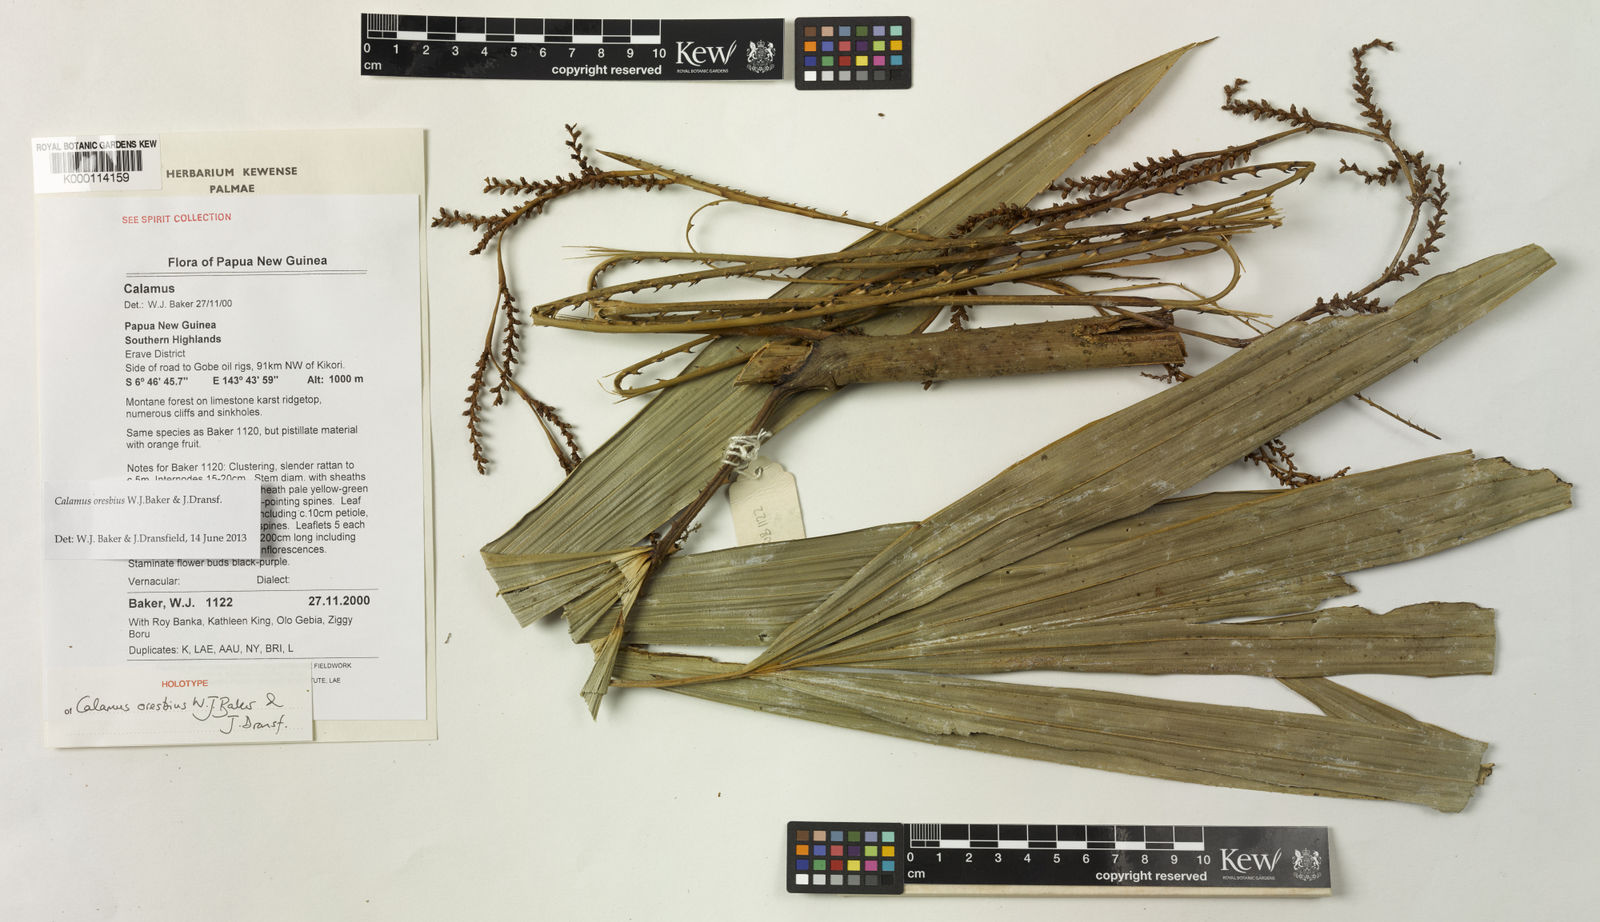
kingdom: Plantae
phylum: Tracheophyta
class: Liliopsida
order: Arecales
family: Arecaceae
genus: Calamus
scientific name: Calamus oresbius
